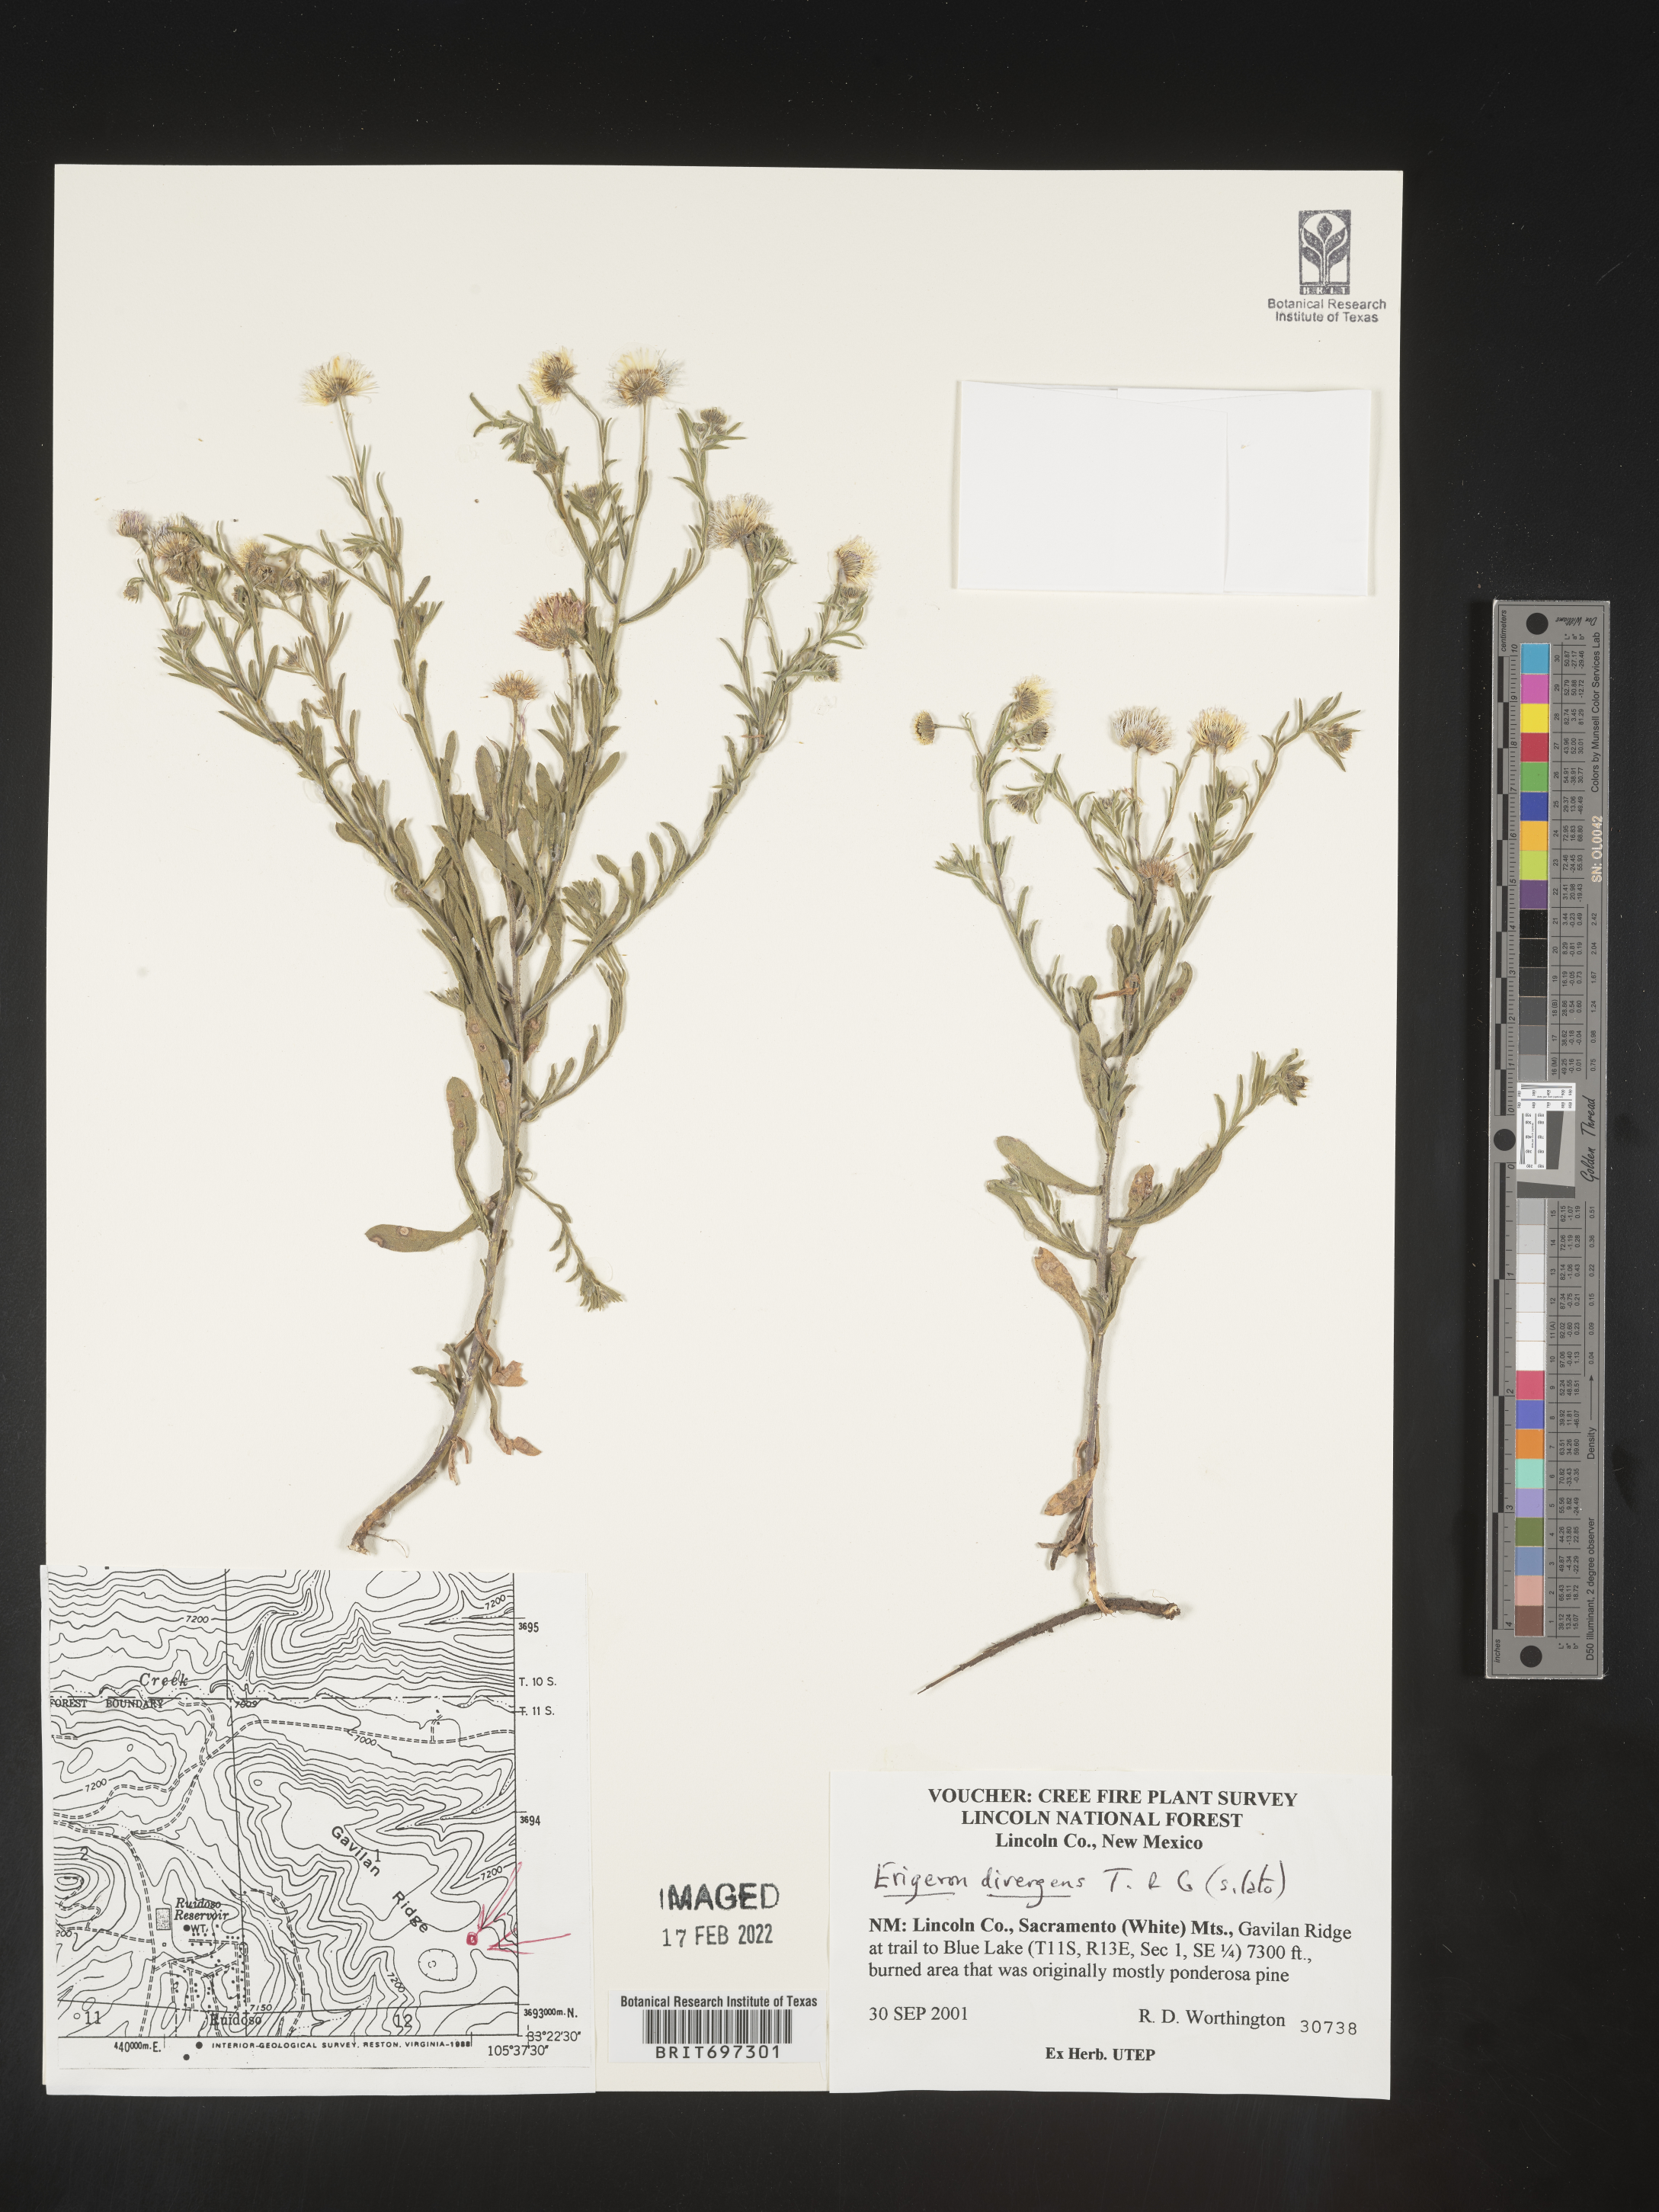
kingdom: Plantae
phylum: Tracheophyta
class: Magnoliopsida
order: Asterales
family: Asteraceae
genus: Erigeron
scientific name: Erigeron divergens
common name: Diffuse fleabane
